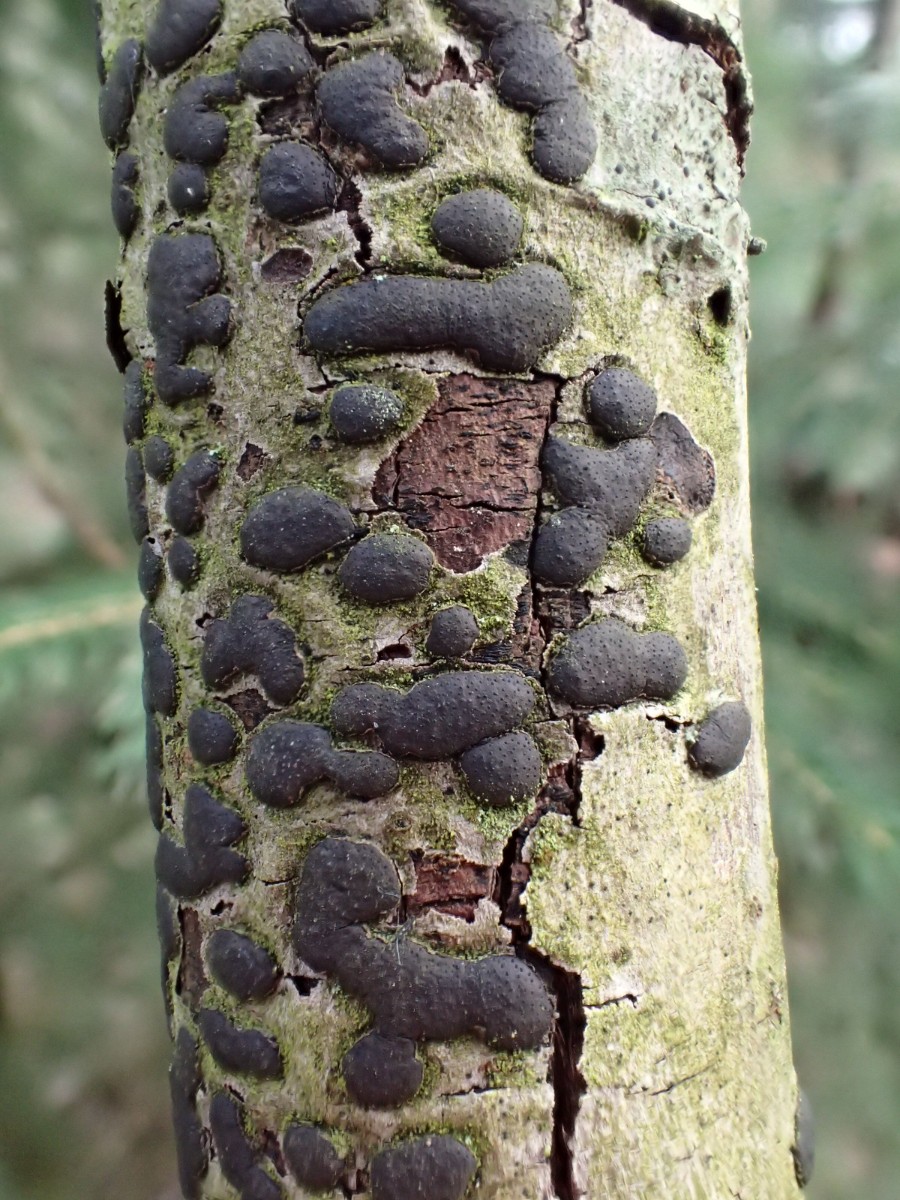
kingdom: Fungi
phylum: Ascomycota
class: Sordariomycetes
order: Xylariales
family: Diatrypaceae
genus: Diatrype
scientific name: Diatrype bullata
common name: pile-kulskorpe
